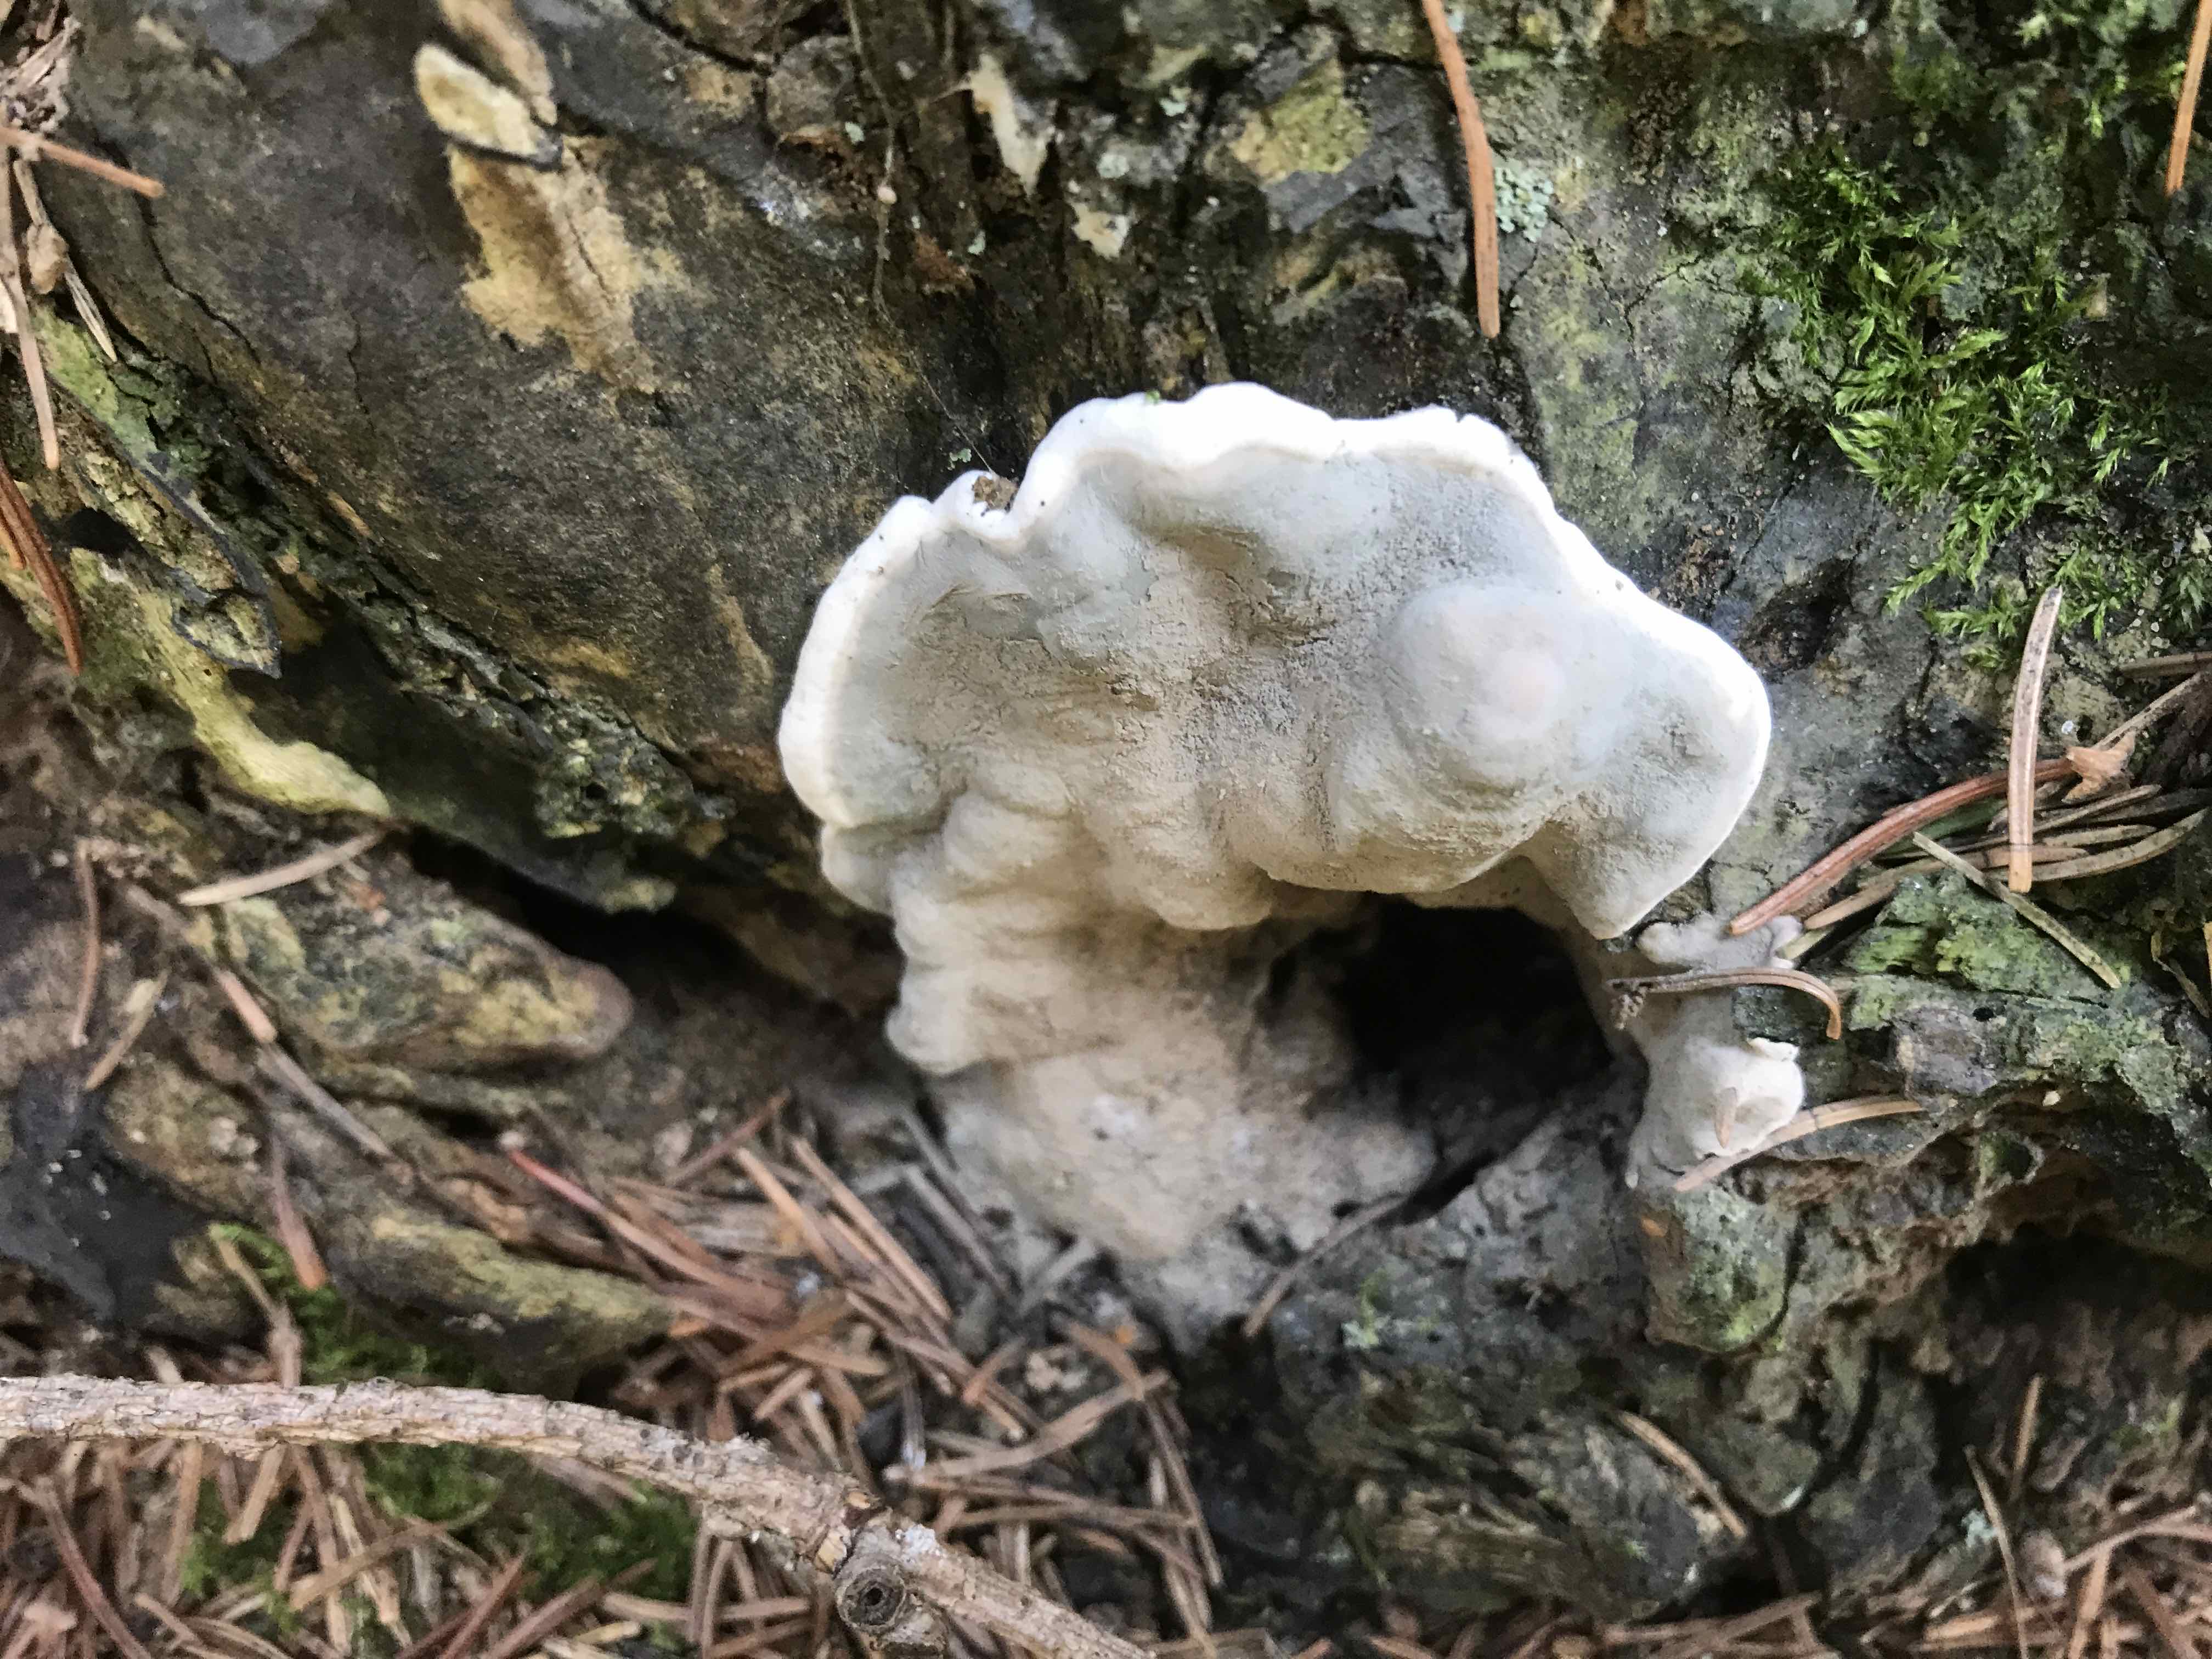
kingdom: Fungi
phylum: Basidiomycota
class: Agaricomycetes
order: Polyporales
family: Polyporaceae
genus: Cyanosporus
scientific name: Cyanosporus caesius
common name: blålig kødporesvamp
